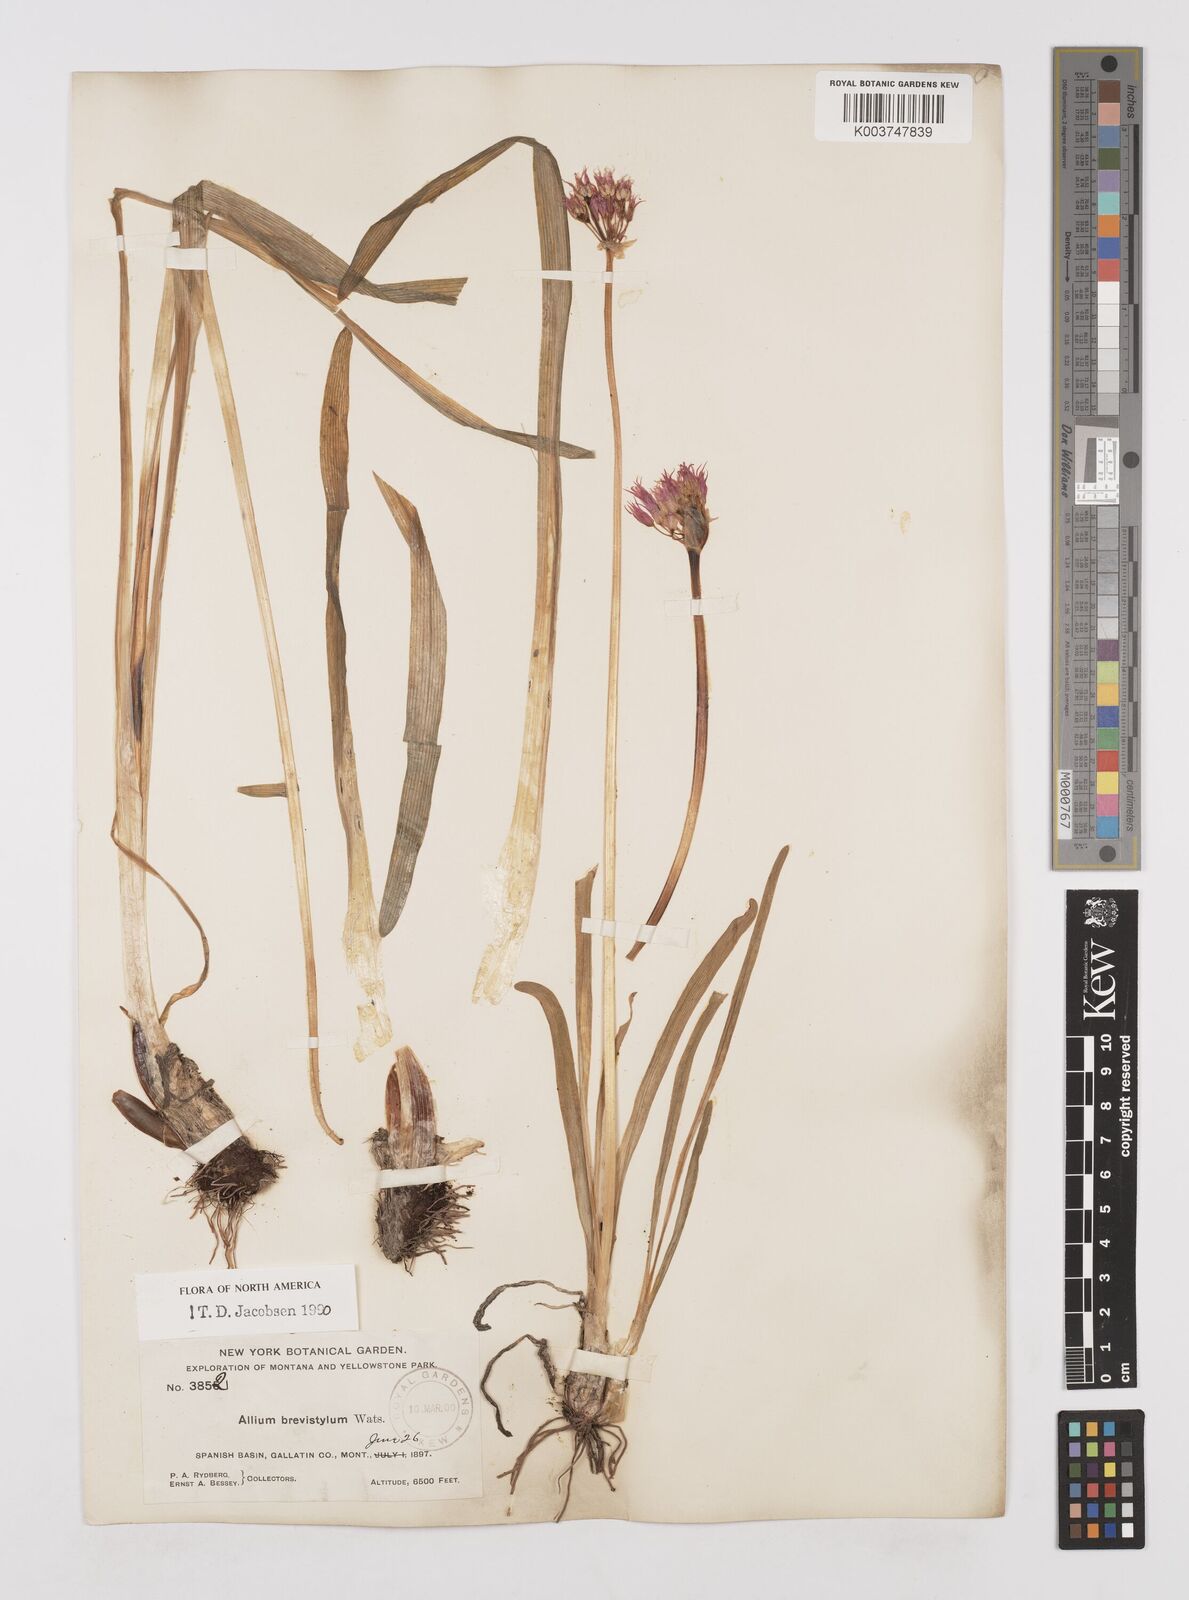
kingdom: Plantae
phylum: Tracheophyta
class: Liliopsida
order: Asparagales
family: Amaryllidaceae
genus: Allium
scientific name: Allium brevistylum
